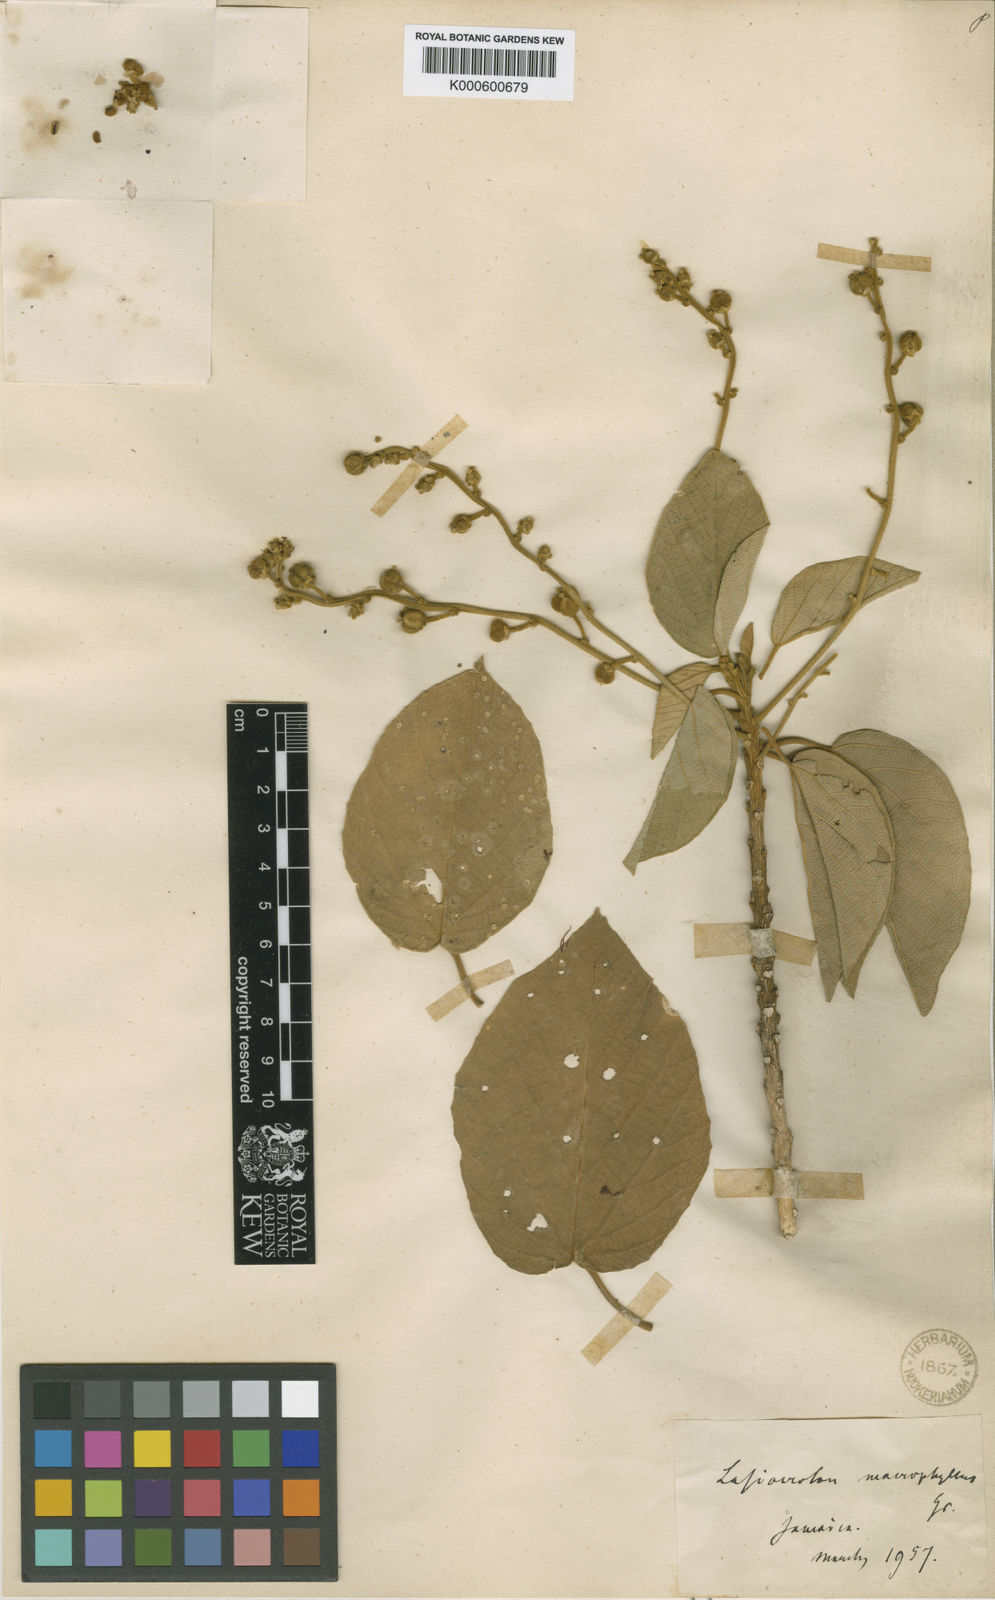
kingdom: Plantae
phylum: Tracheophyta
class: Magnoliopsida
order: Malpighiales
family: Euphorbiaceae
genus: Lasiocroton
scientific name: Lasiocroton macrophyllus
